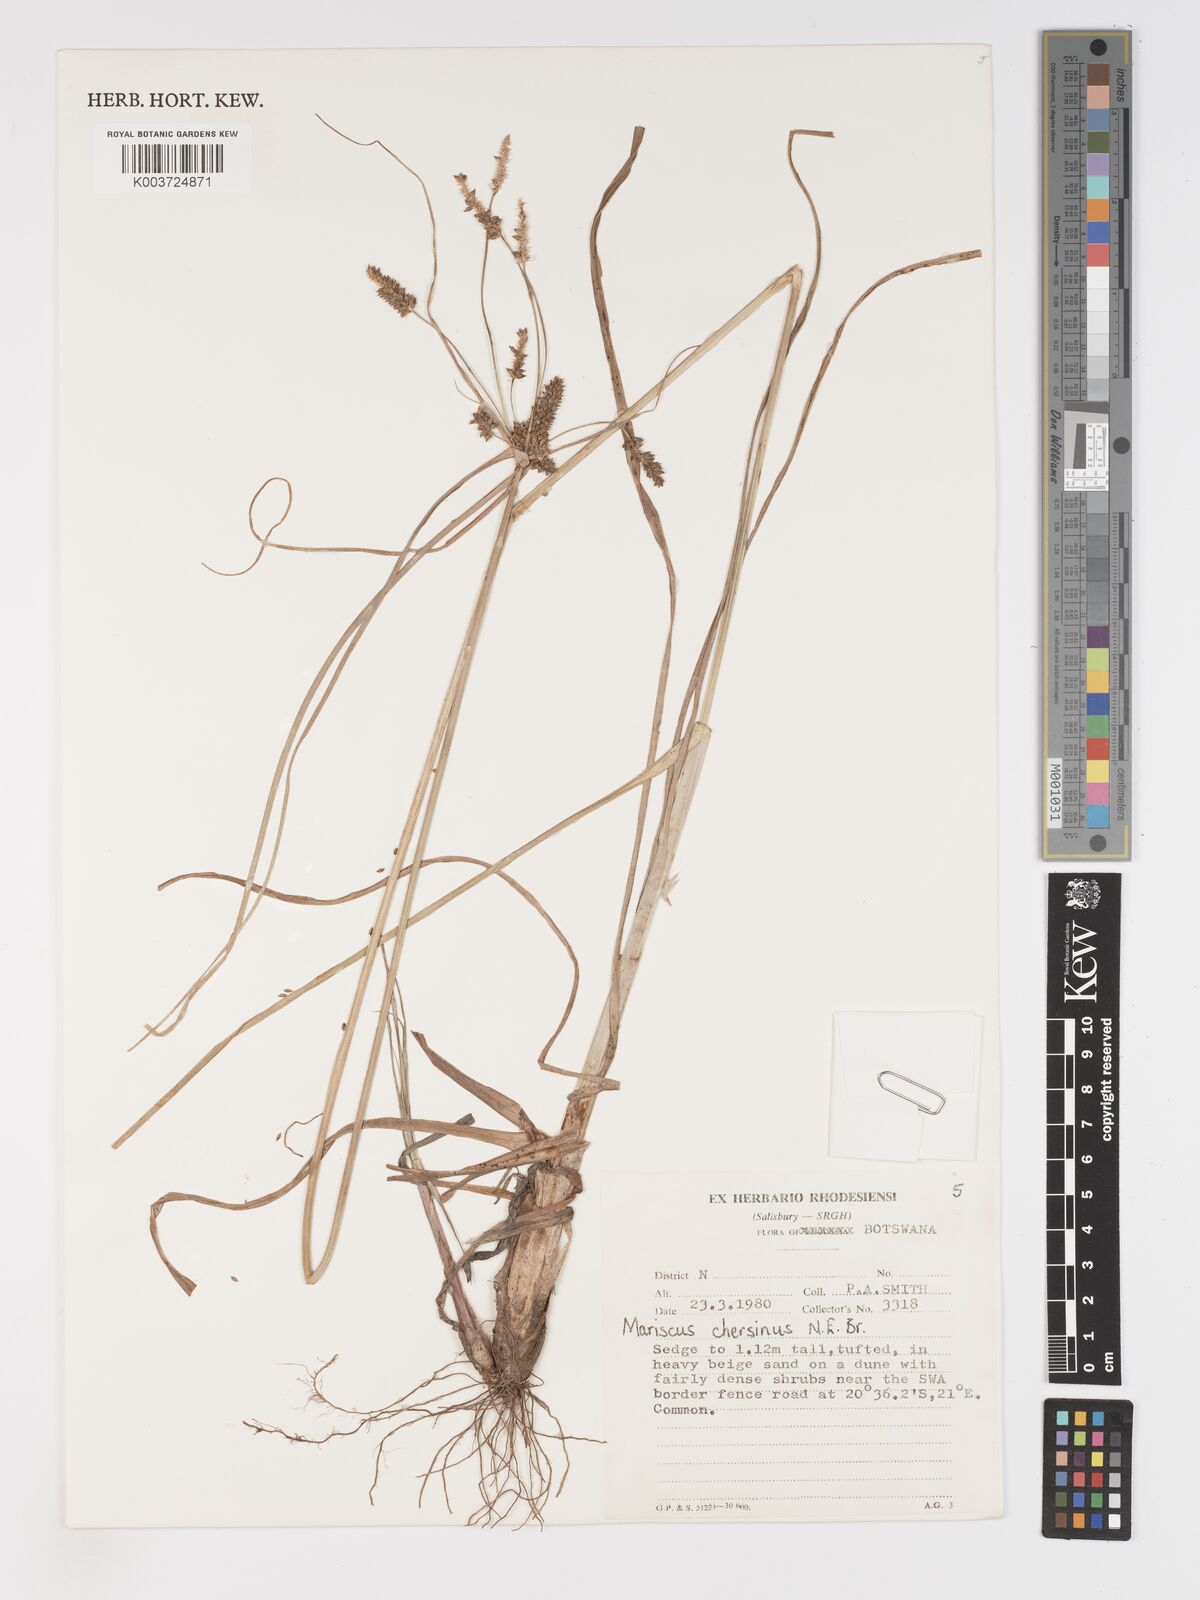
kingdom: Plantae
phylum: Tracheophyta
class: Liliopsida
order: Poales
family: Cyperaceae
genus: Cyperus
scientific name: Cyperus chersinus
